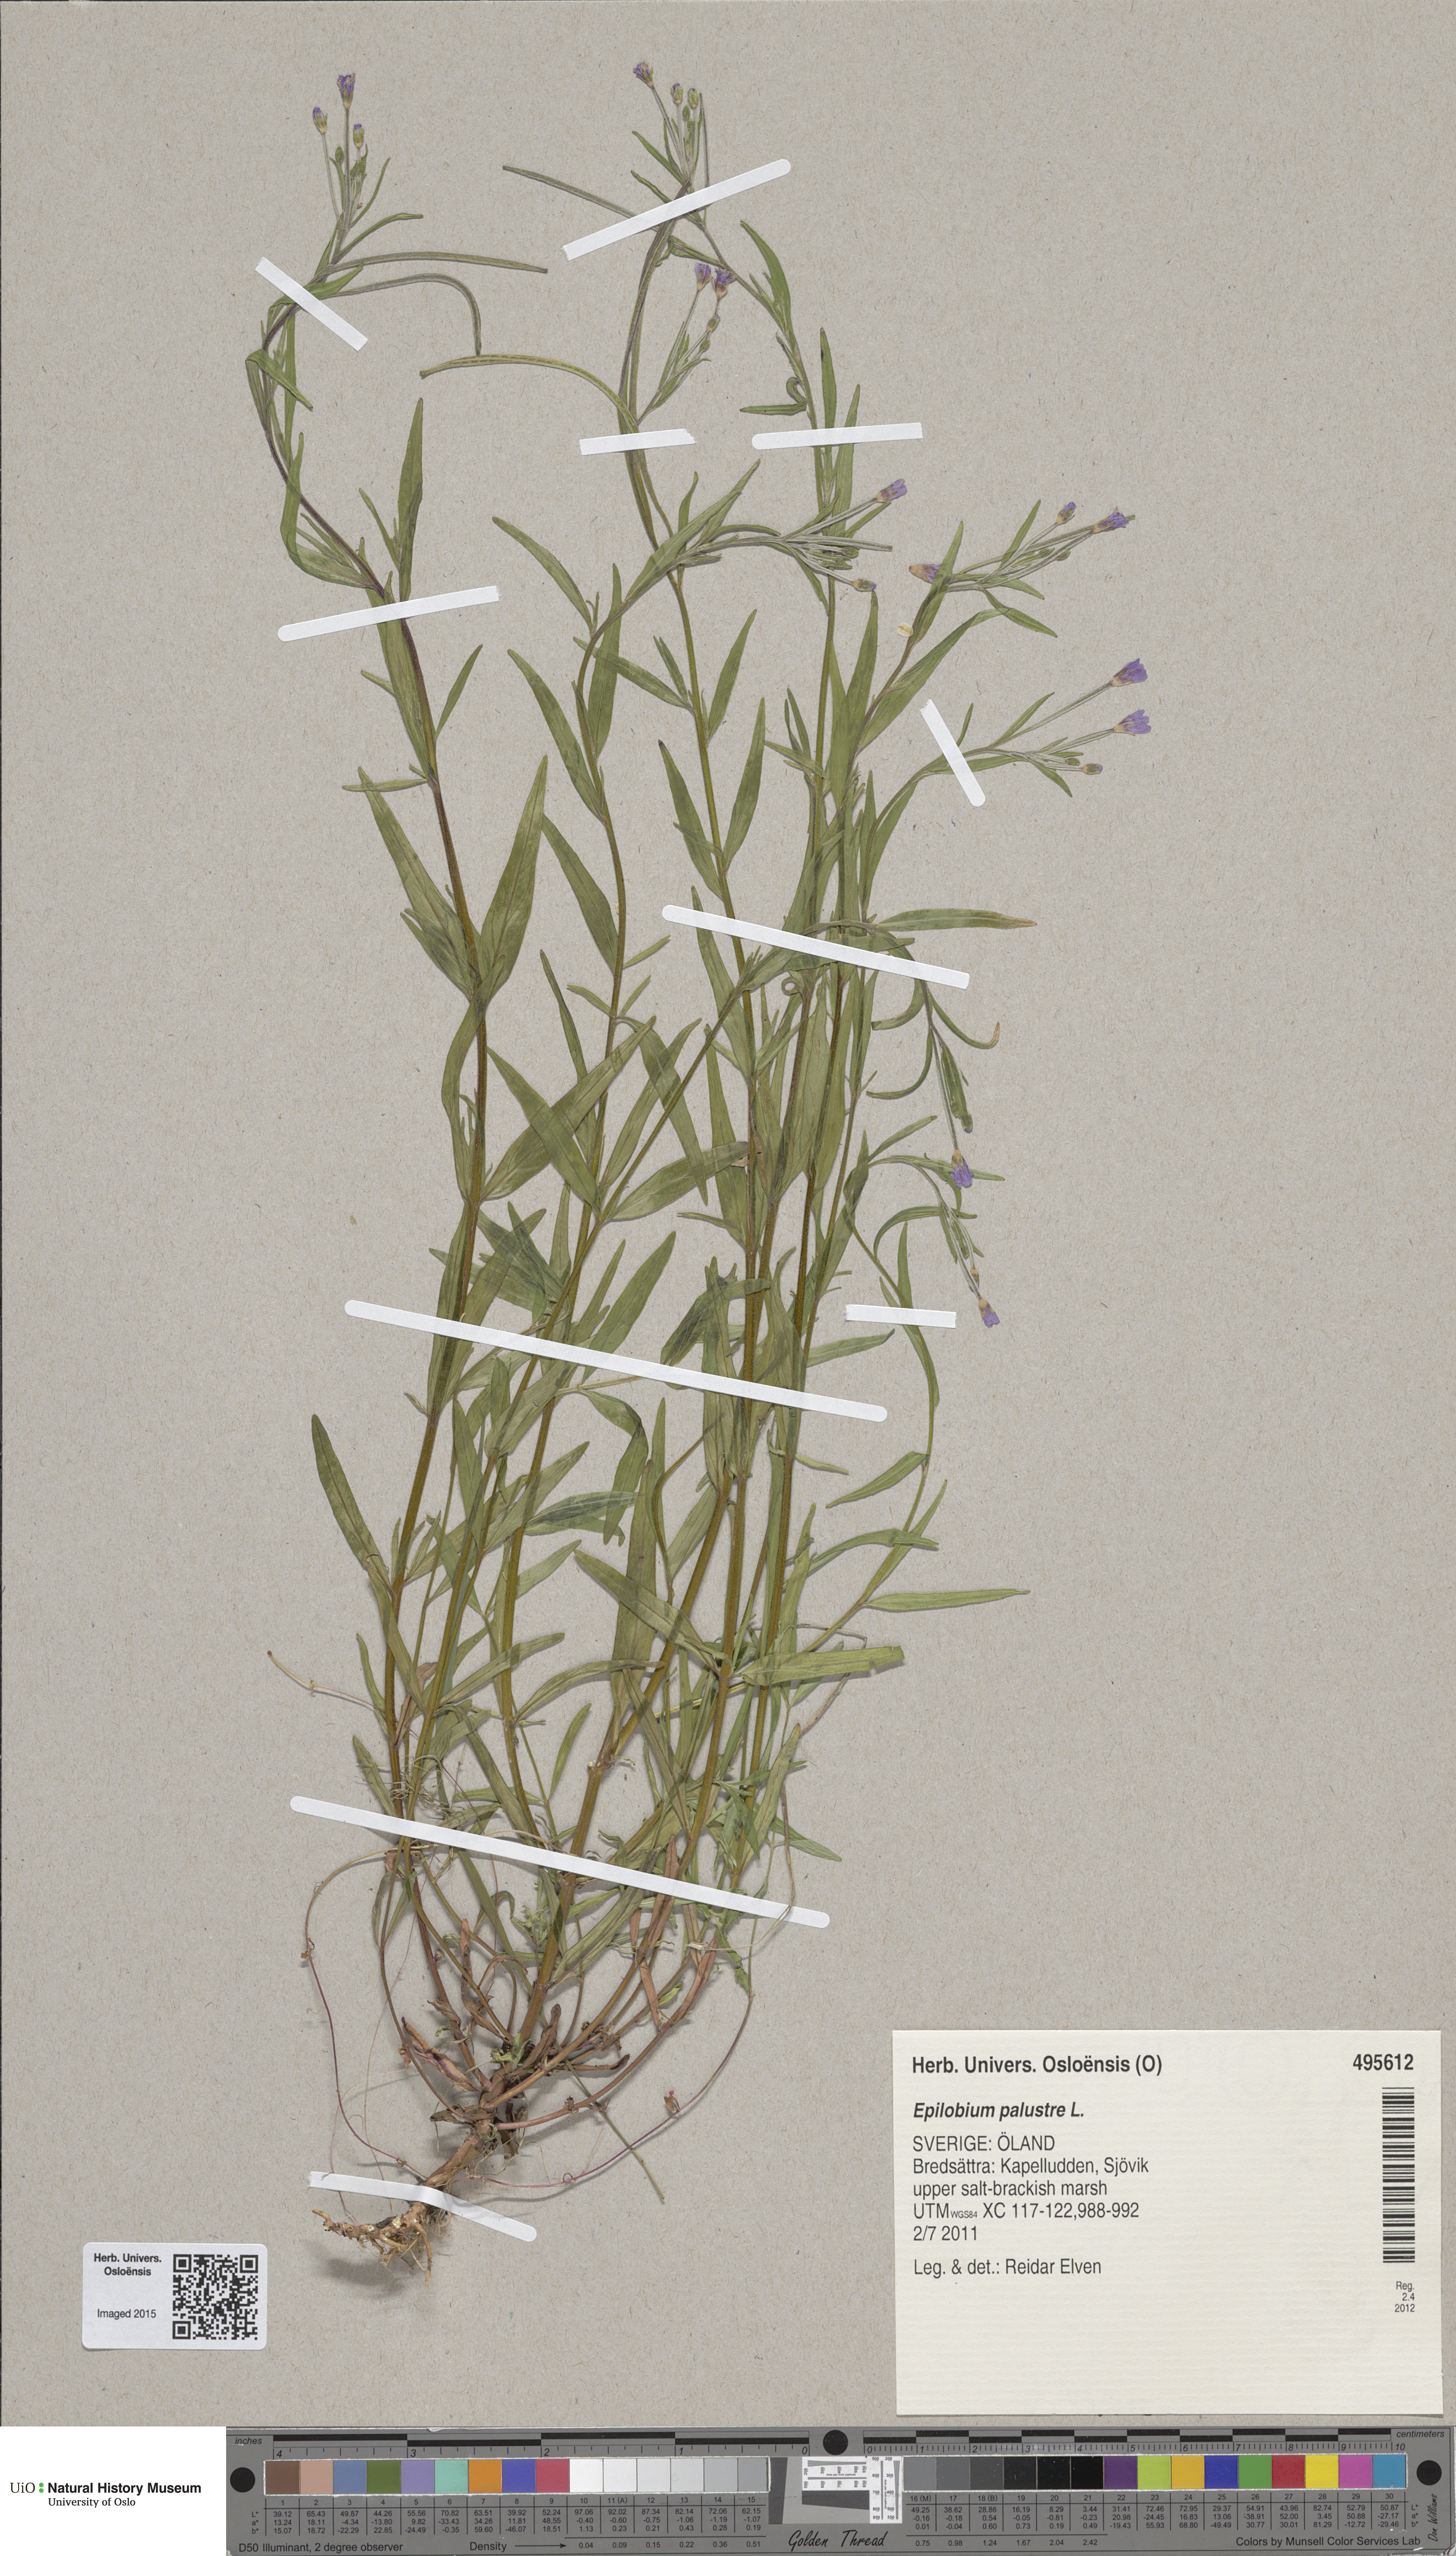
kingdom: Plantae
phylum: Tracheophyta
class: Magnoliopsida
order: Myrtales
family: Onagraceae
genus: Epilobium
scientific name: Epilobium palustre
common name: Marsh willowherb
